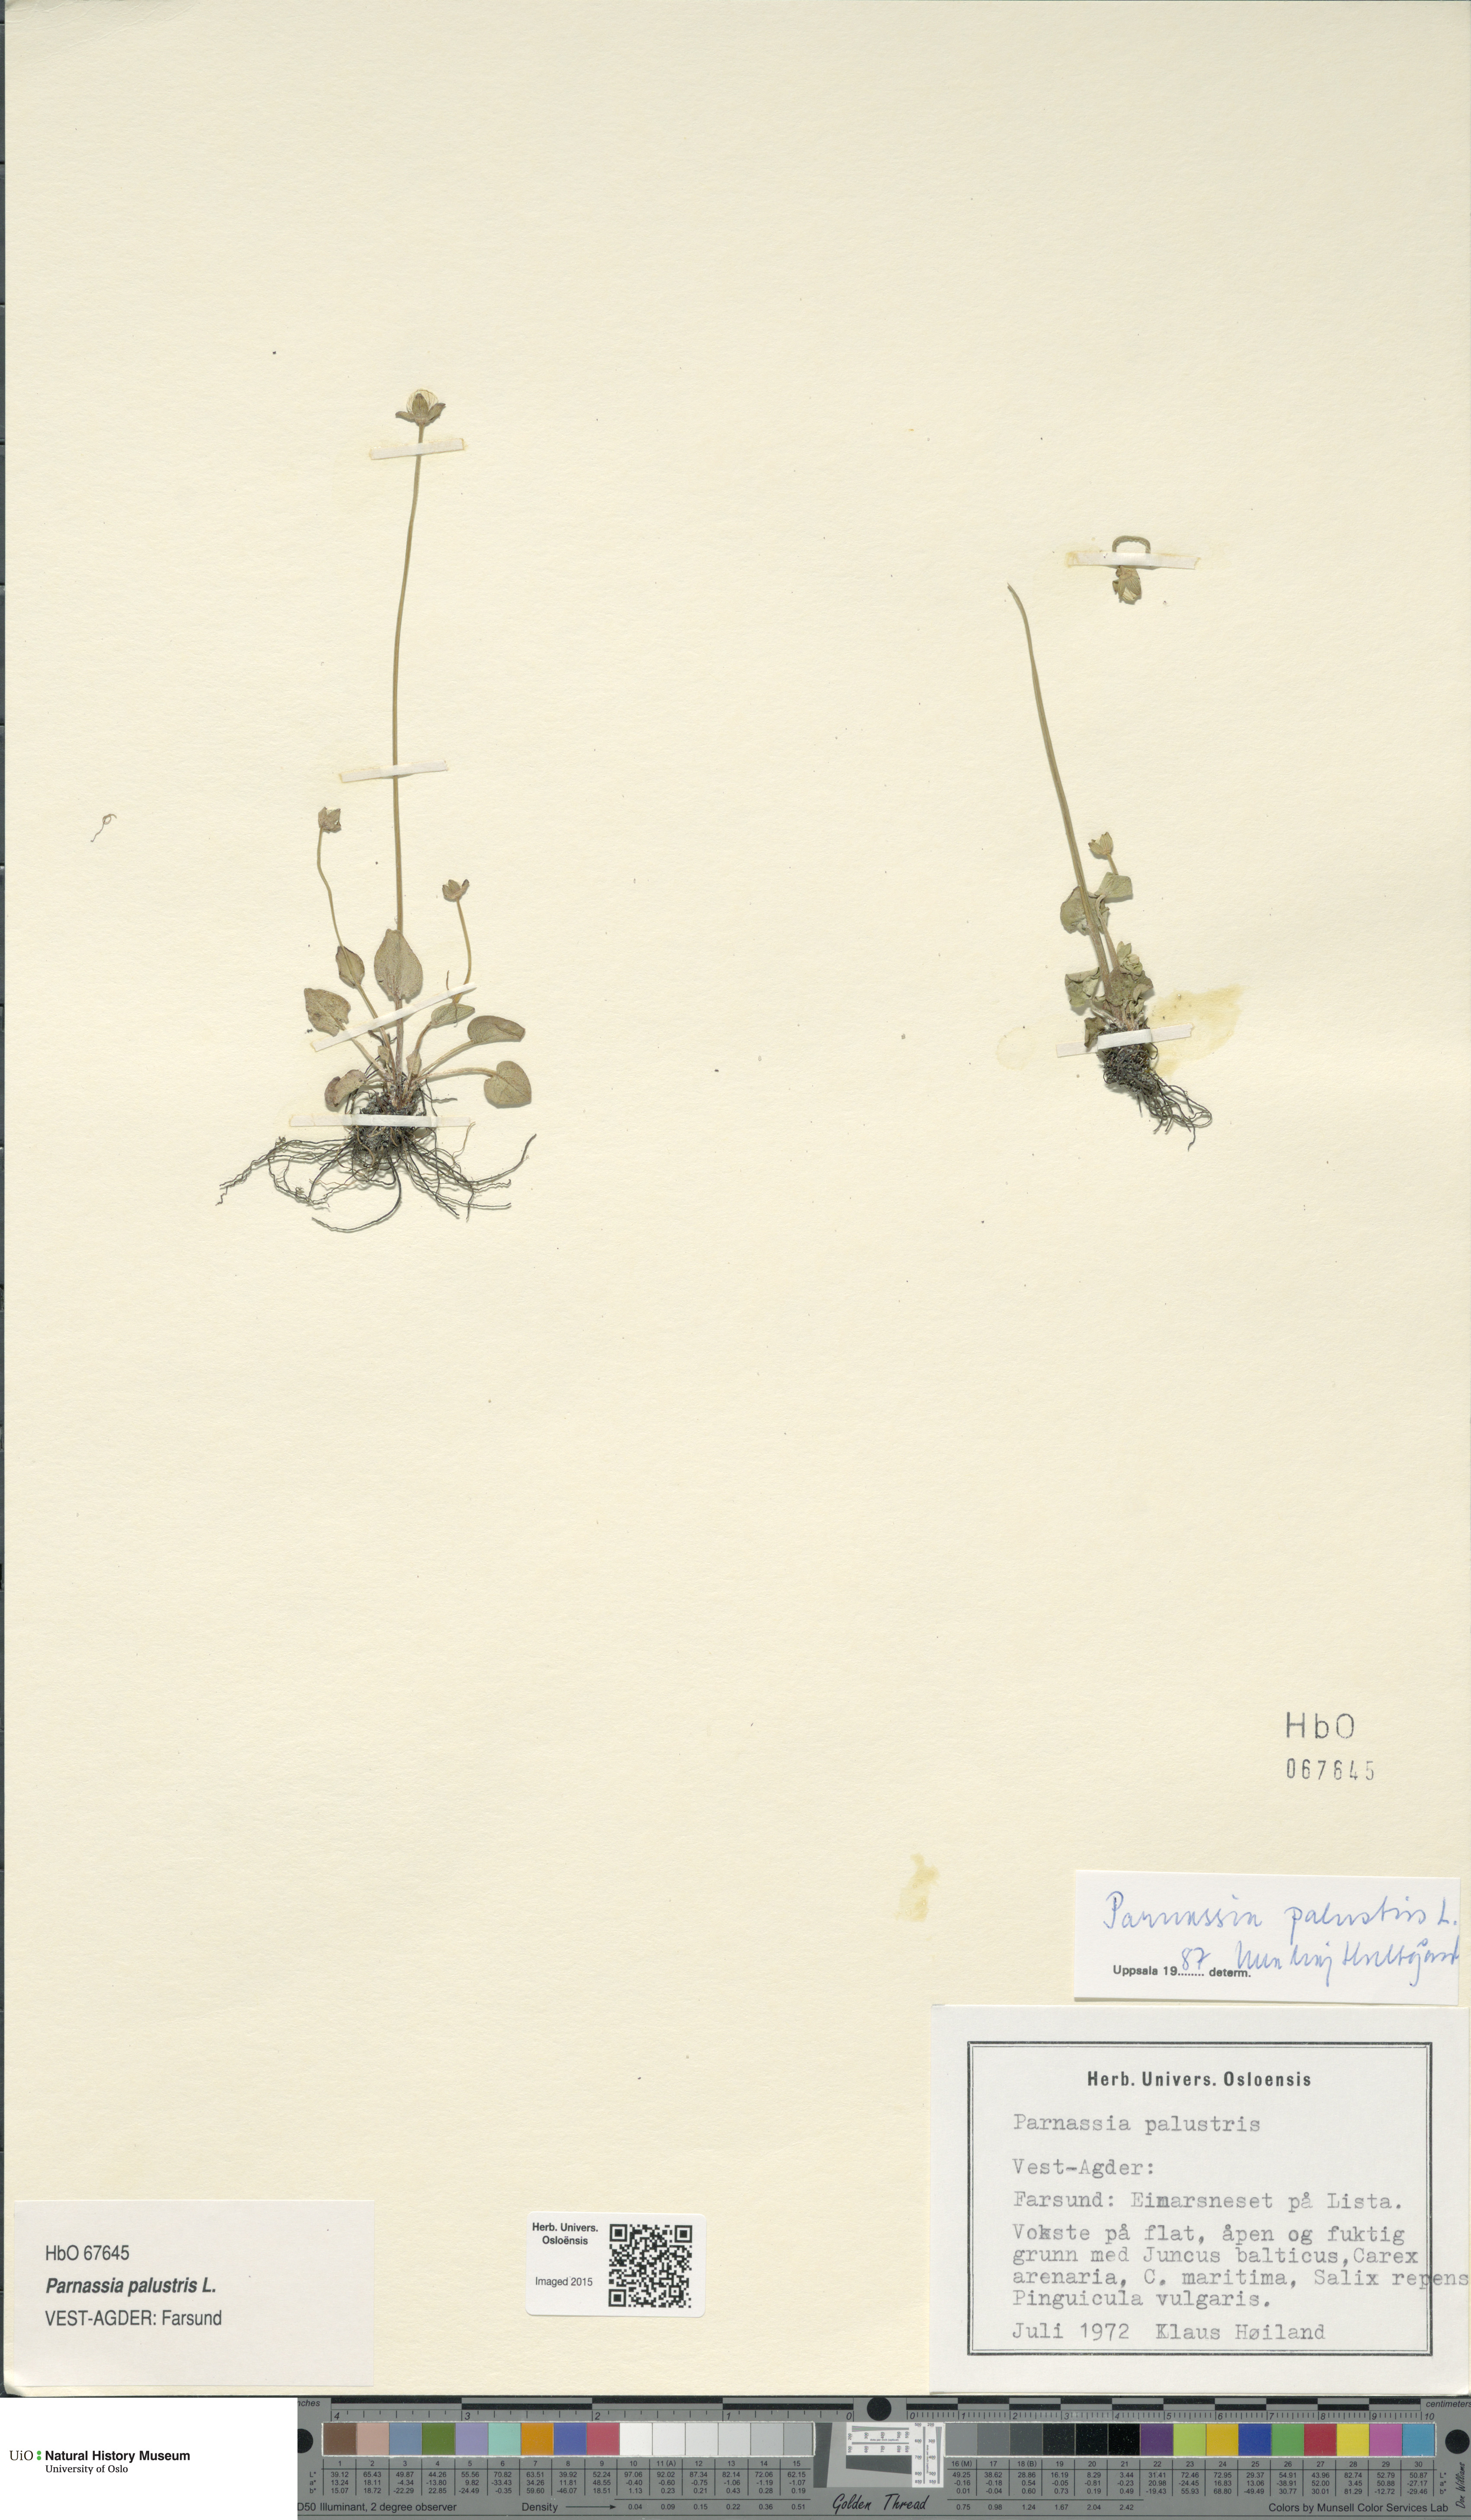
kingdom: Plantae
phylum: Tracheophyta
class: Magnoliopsida
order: Celastrales
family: Parnassiaceae
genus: Parnassia
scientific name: Parnassia palustris
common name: Grass-of-parnassus
